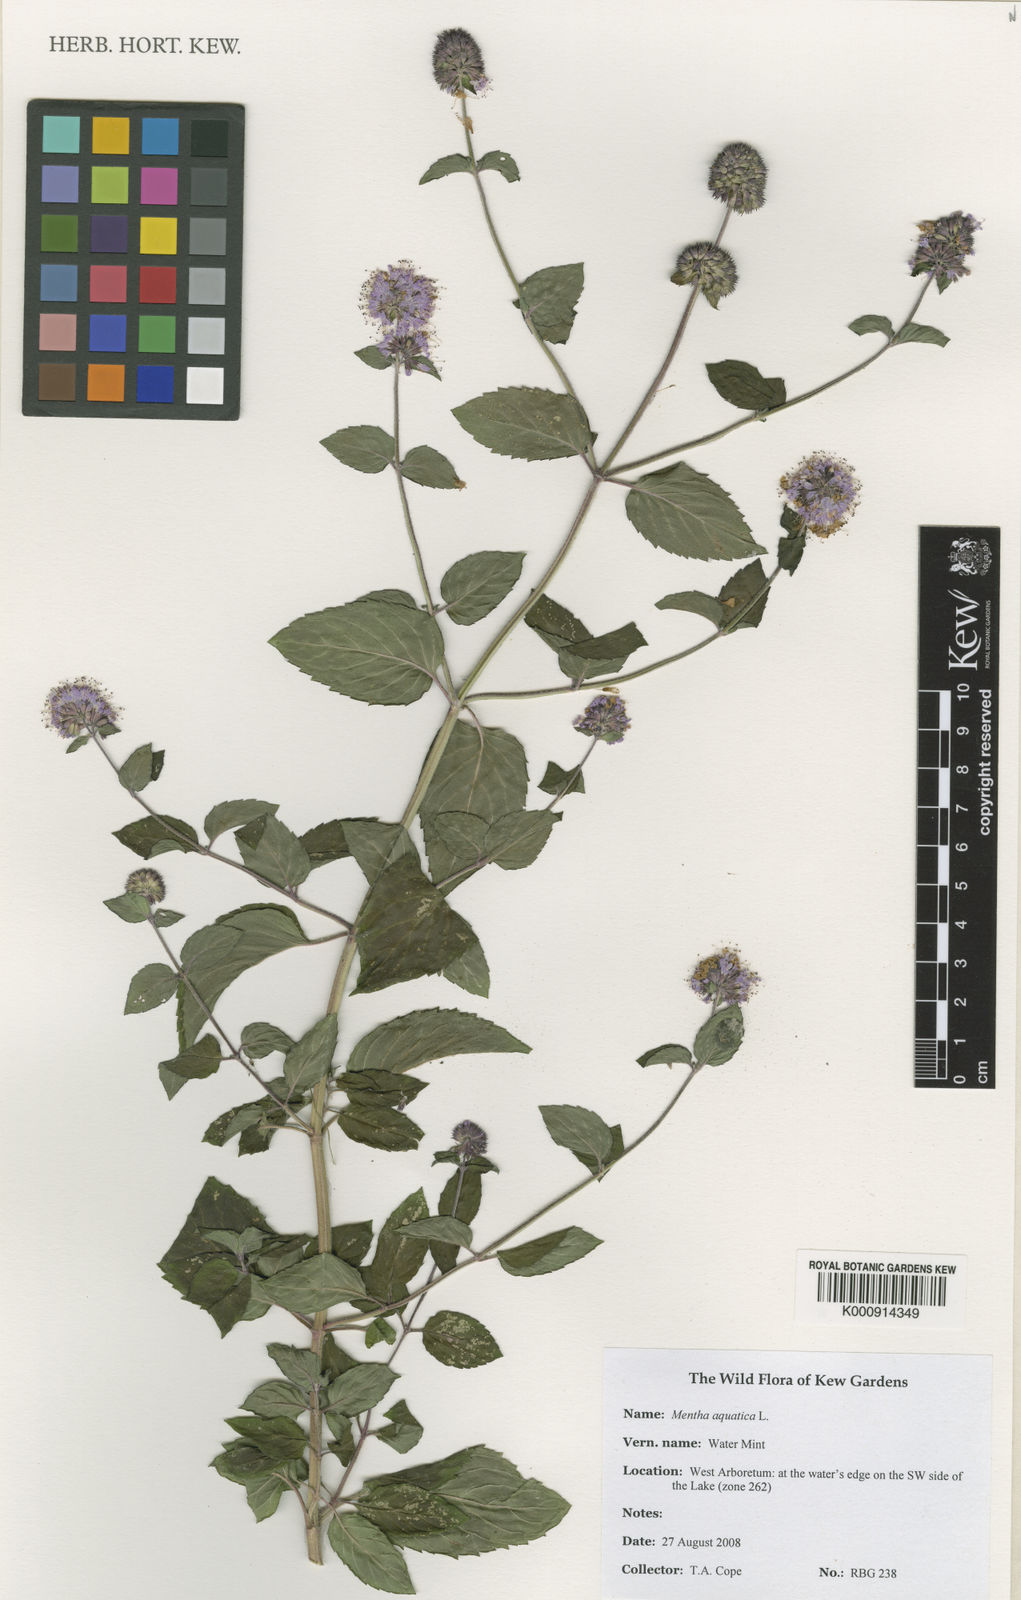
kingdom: Plantae
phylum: Tracheophyta
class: Magnoliopsida
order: Lamiales
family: Lamiaceae
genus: Mentha
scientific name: Mentha aquatica
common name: Water mint
